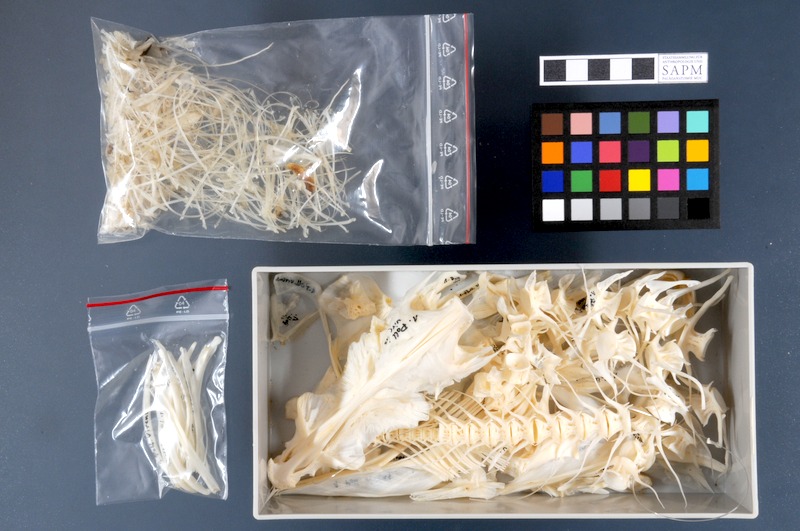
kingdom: Animalia
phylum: Chordata
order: Gadiformes
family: Gadidae
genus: Pollachius
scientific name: Pollachius virens
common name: Saithe
